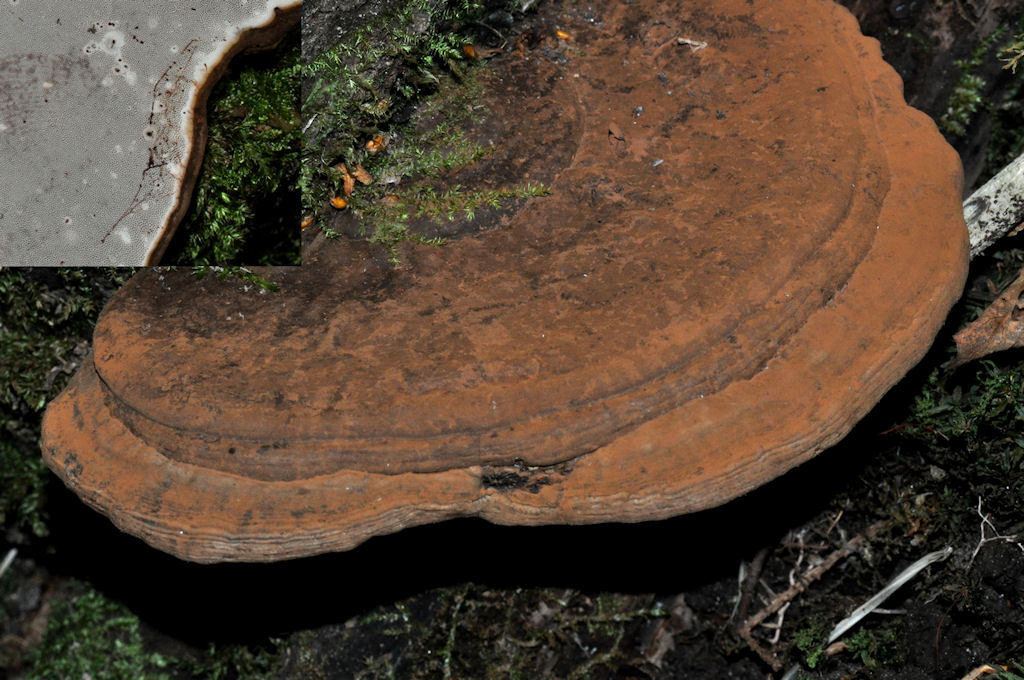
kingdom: Fungi
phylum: Basidiomycota
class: Agaricomycetes
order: Polyporales
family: Polyporaceae
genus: Ganoderma
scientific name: Ganoderma applanatum
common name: flad lakporesvamp
